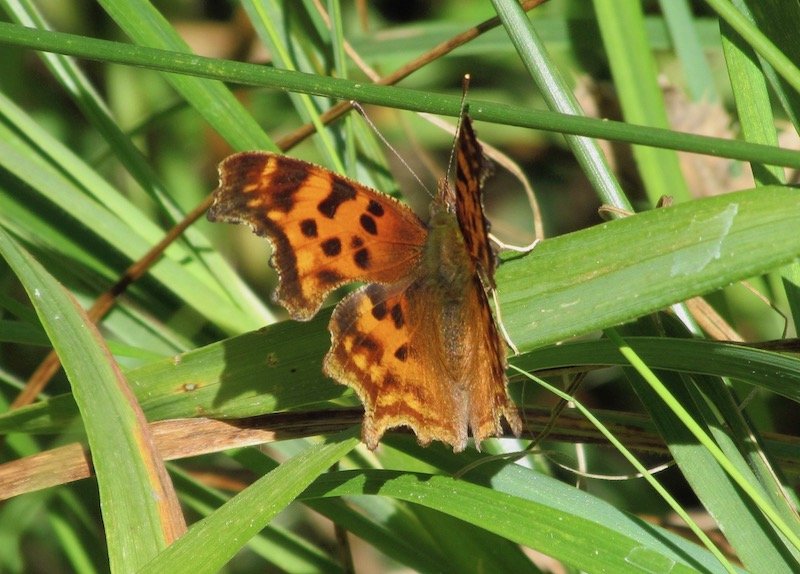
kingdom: Animalia
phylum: Arthropoda
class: Insecta
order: Lepidoptera
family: Nymphalidae
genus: Polygonia
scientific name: Polygonia satyrus
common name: Satyr Comma
